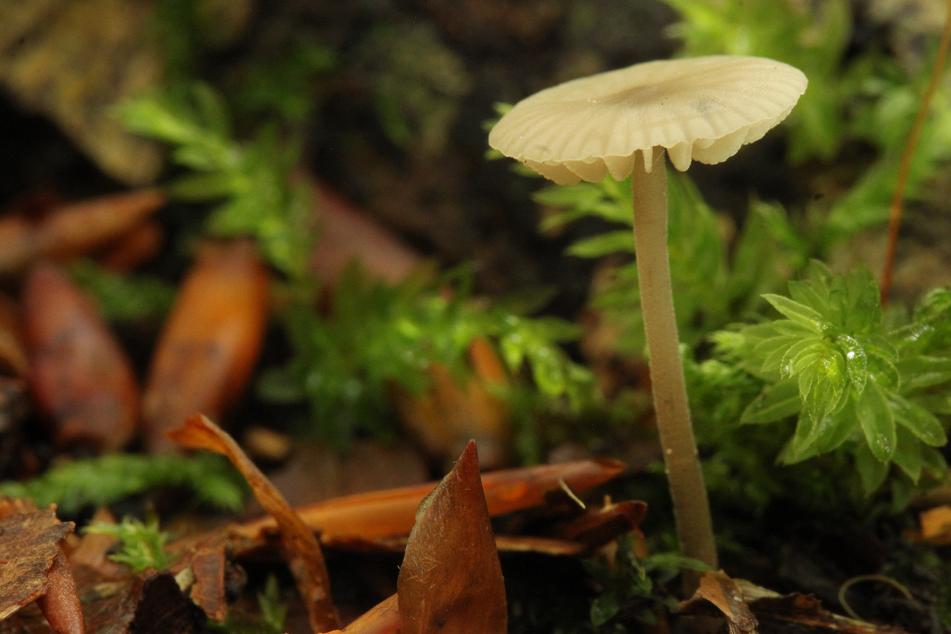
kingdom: Fungi
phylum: Basidiomycota
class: Agaricomycetes
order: Agaricales
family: Omphalotaceae
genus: Mycetinis
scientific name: Mycetinis alliaceus
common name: stor løghat
